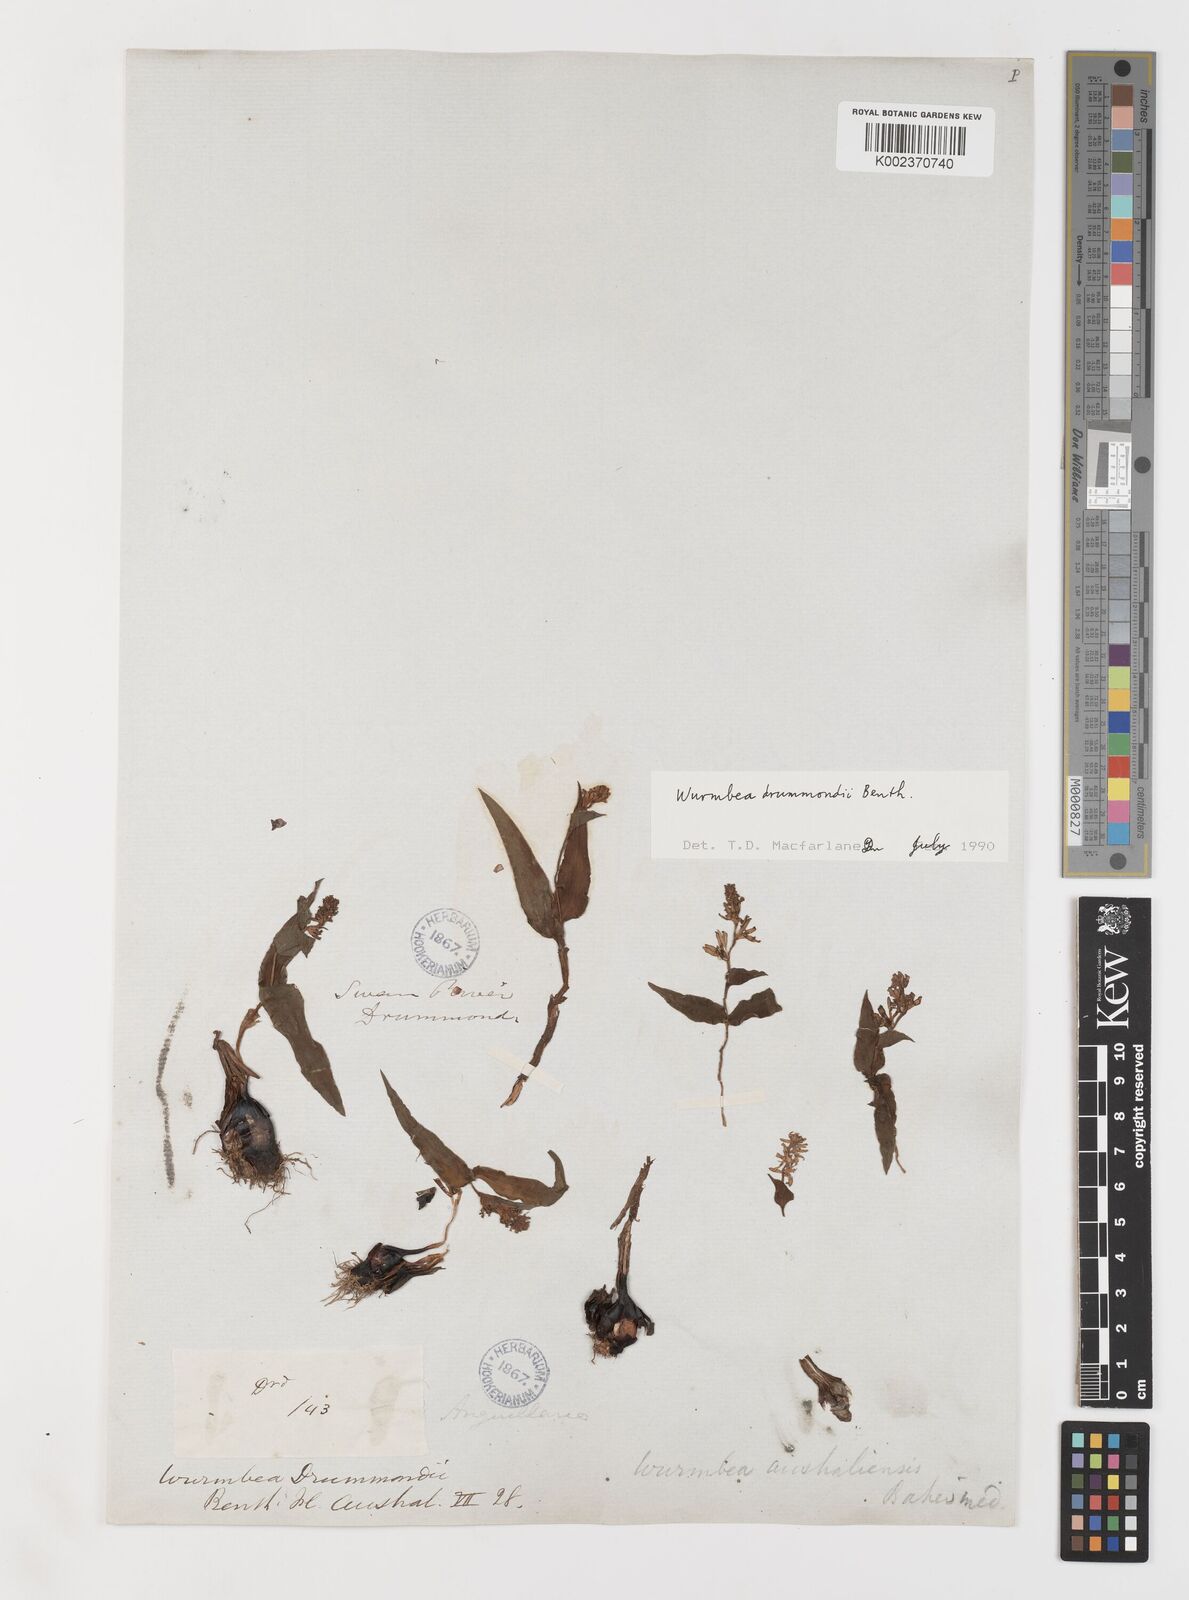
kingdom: Plantae
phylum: Tracheophyta
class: Liliopsida
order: Liliales
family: Colchicaceae
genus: Wurmbea
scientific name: Wurmbea drummondii
